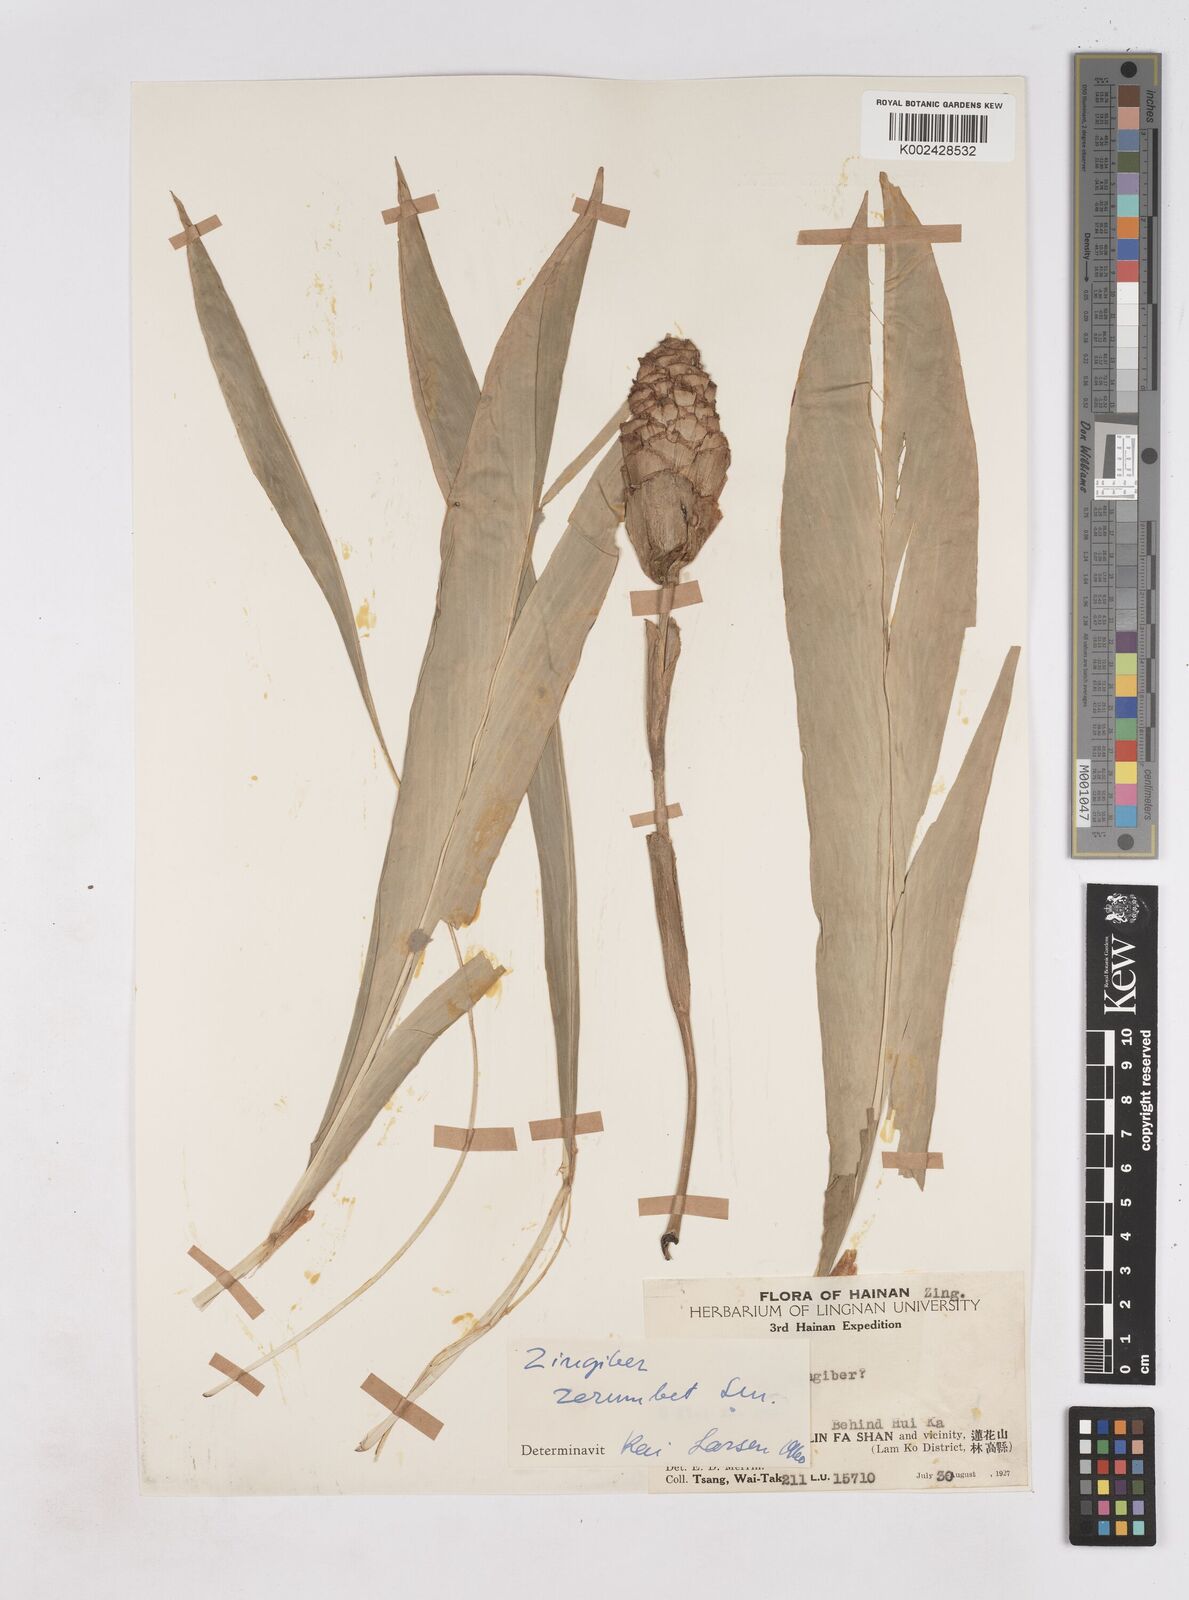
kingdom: Plantae
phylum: Tracheophyta
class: Liliopsida
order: Zingiberales
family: Zingiberaceae
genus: Zingiber
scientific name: Zingiber zerumbet
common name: Bitter ginger
